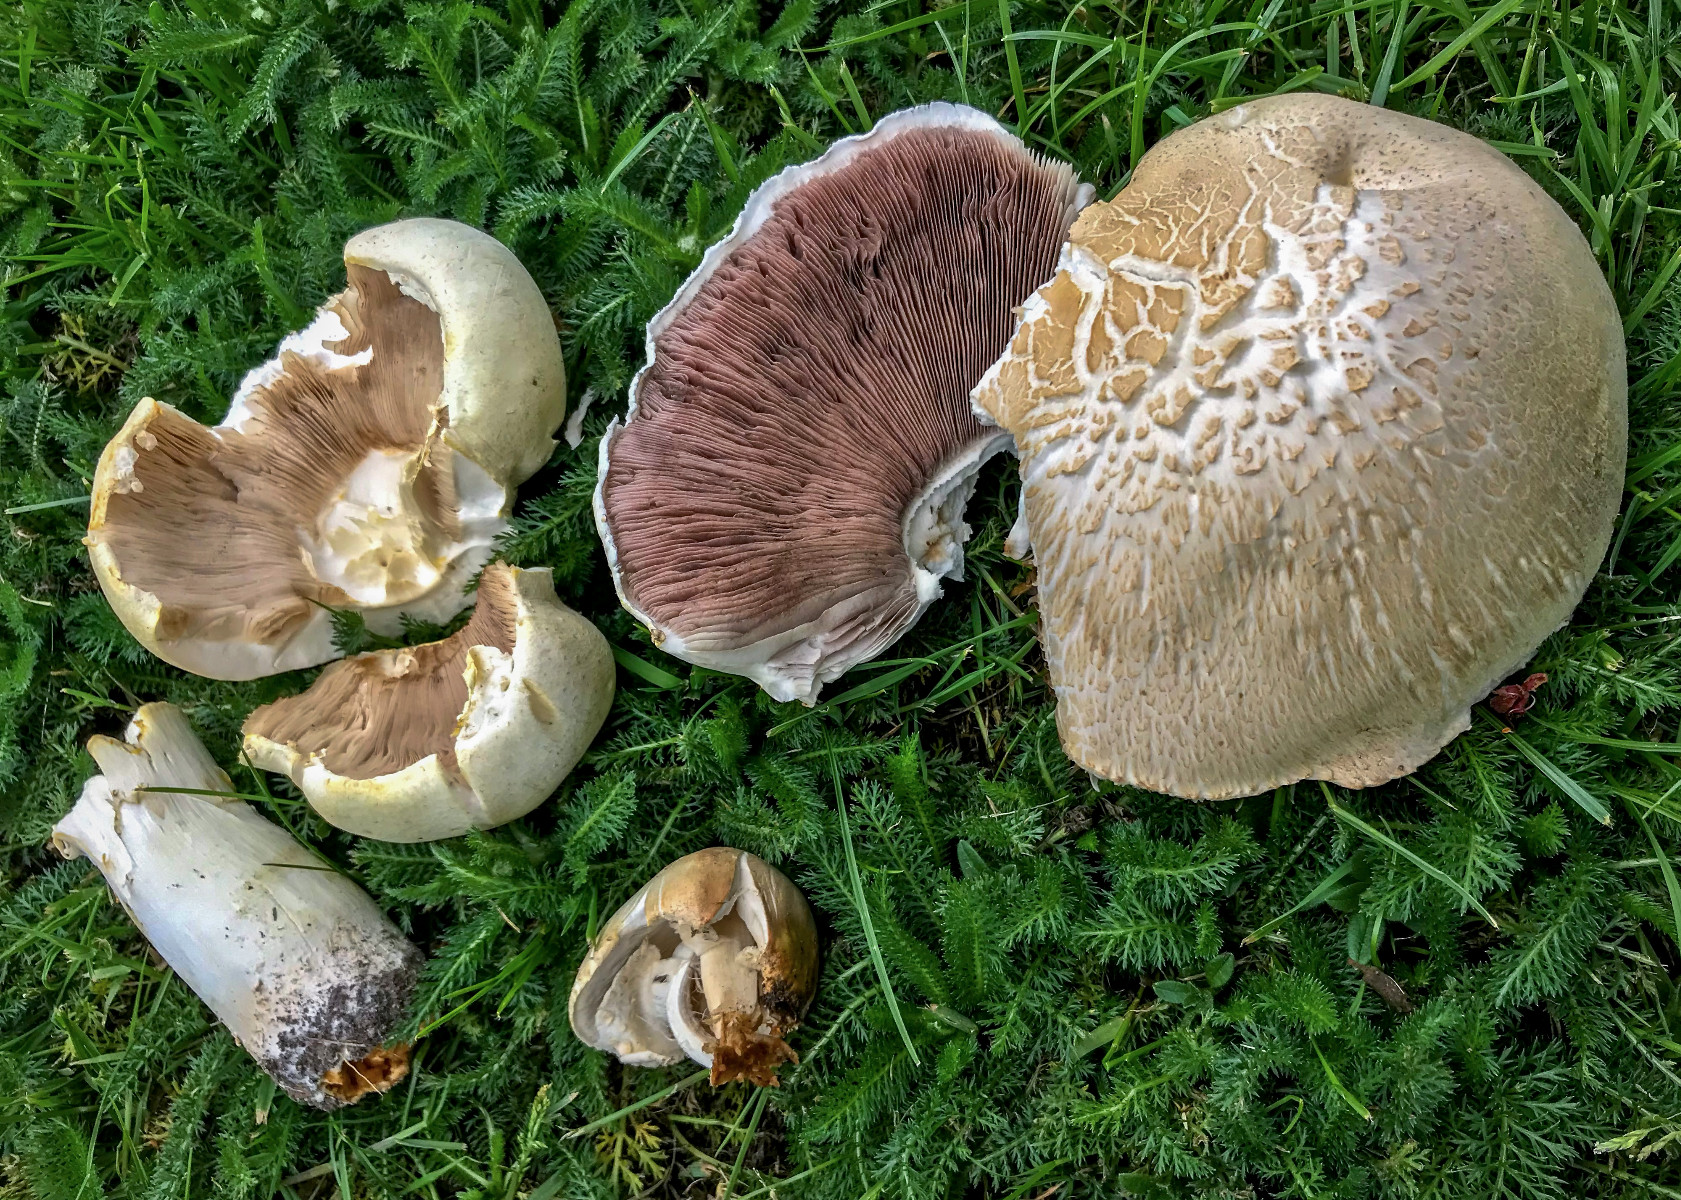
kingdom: Fungi
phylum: Basidiomycota
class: Agaricomycetes
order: Agaricales
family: Agaricaceae
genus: Agaricus
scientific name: Agaricus arvensis
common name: ager-champignon
